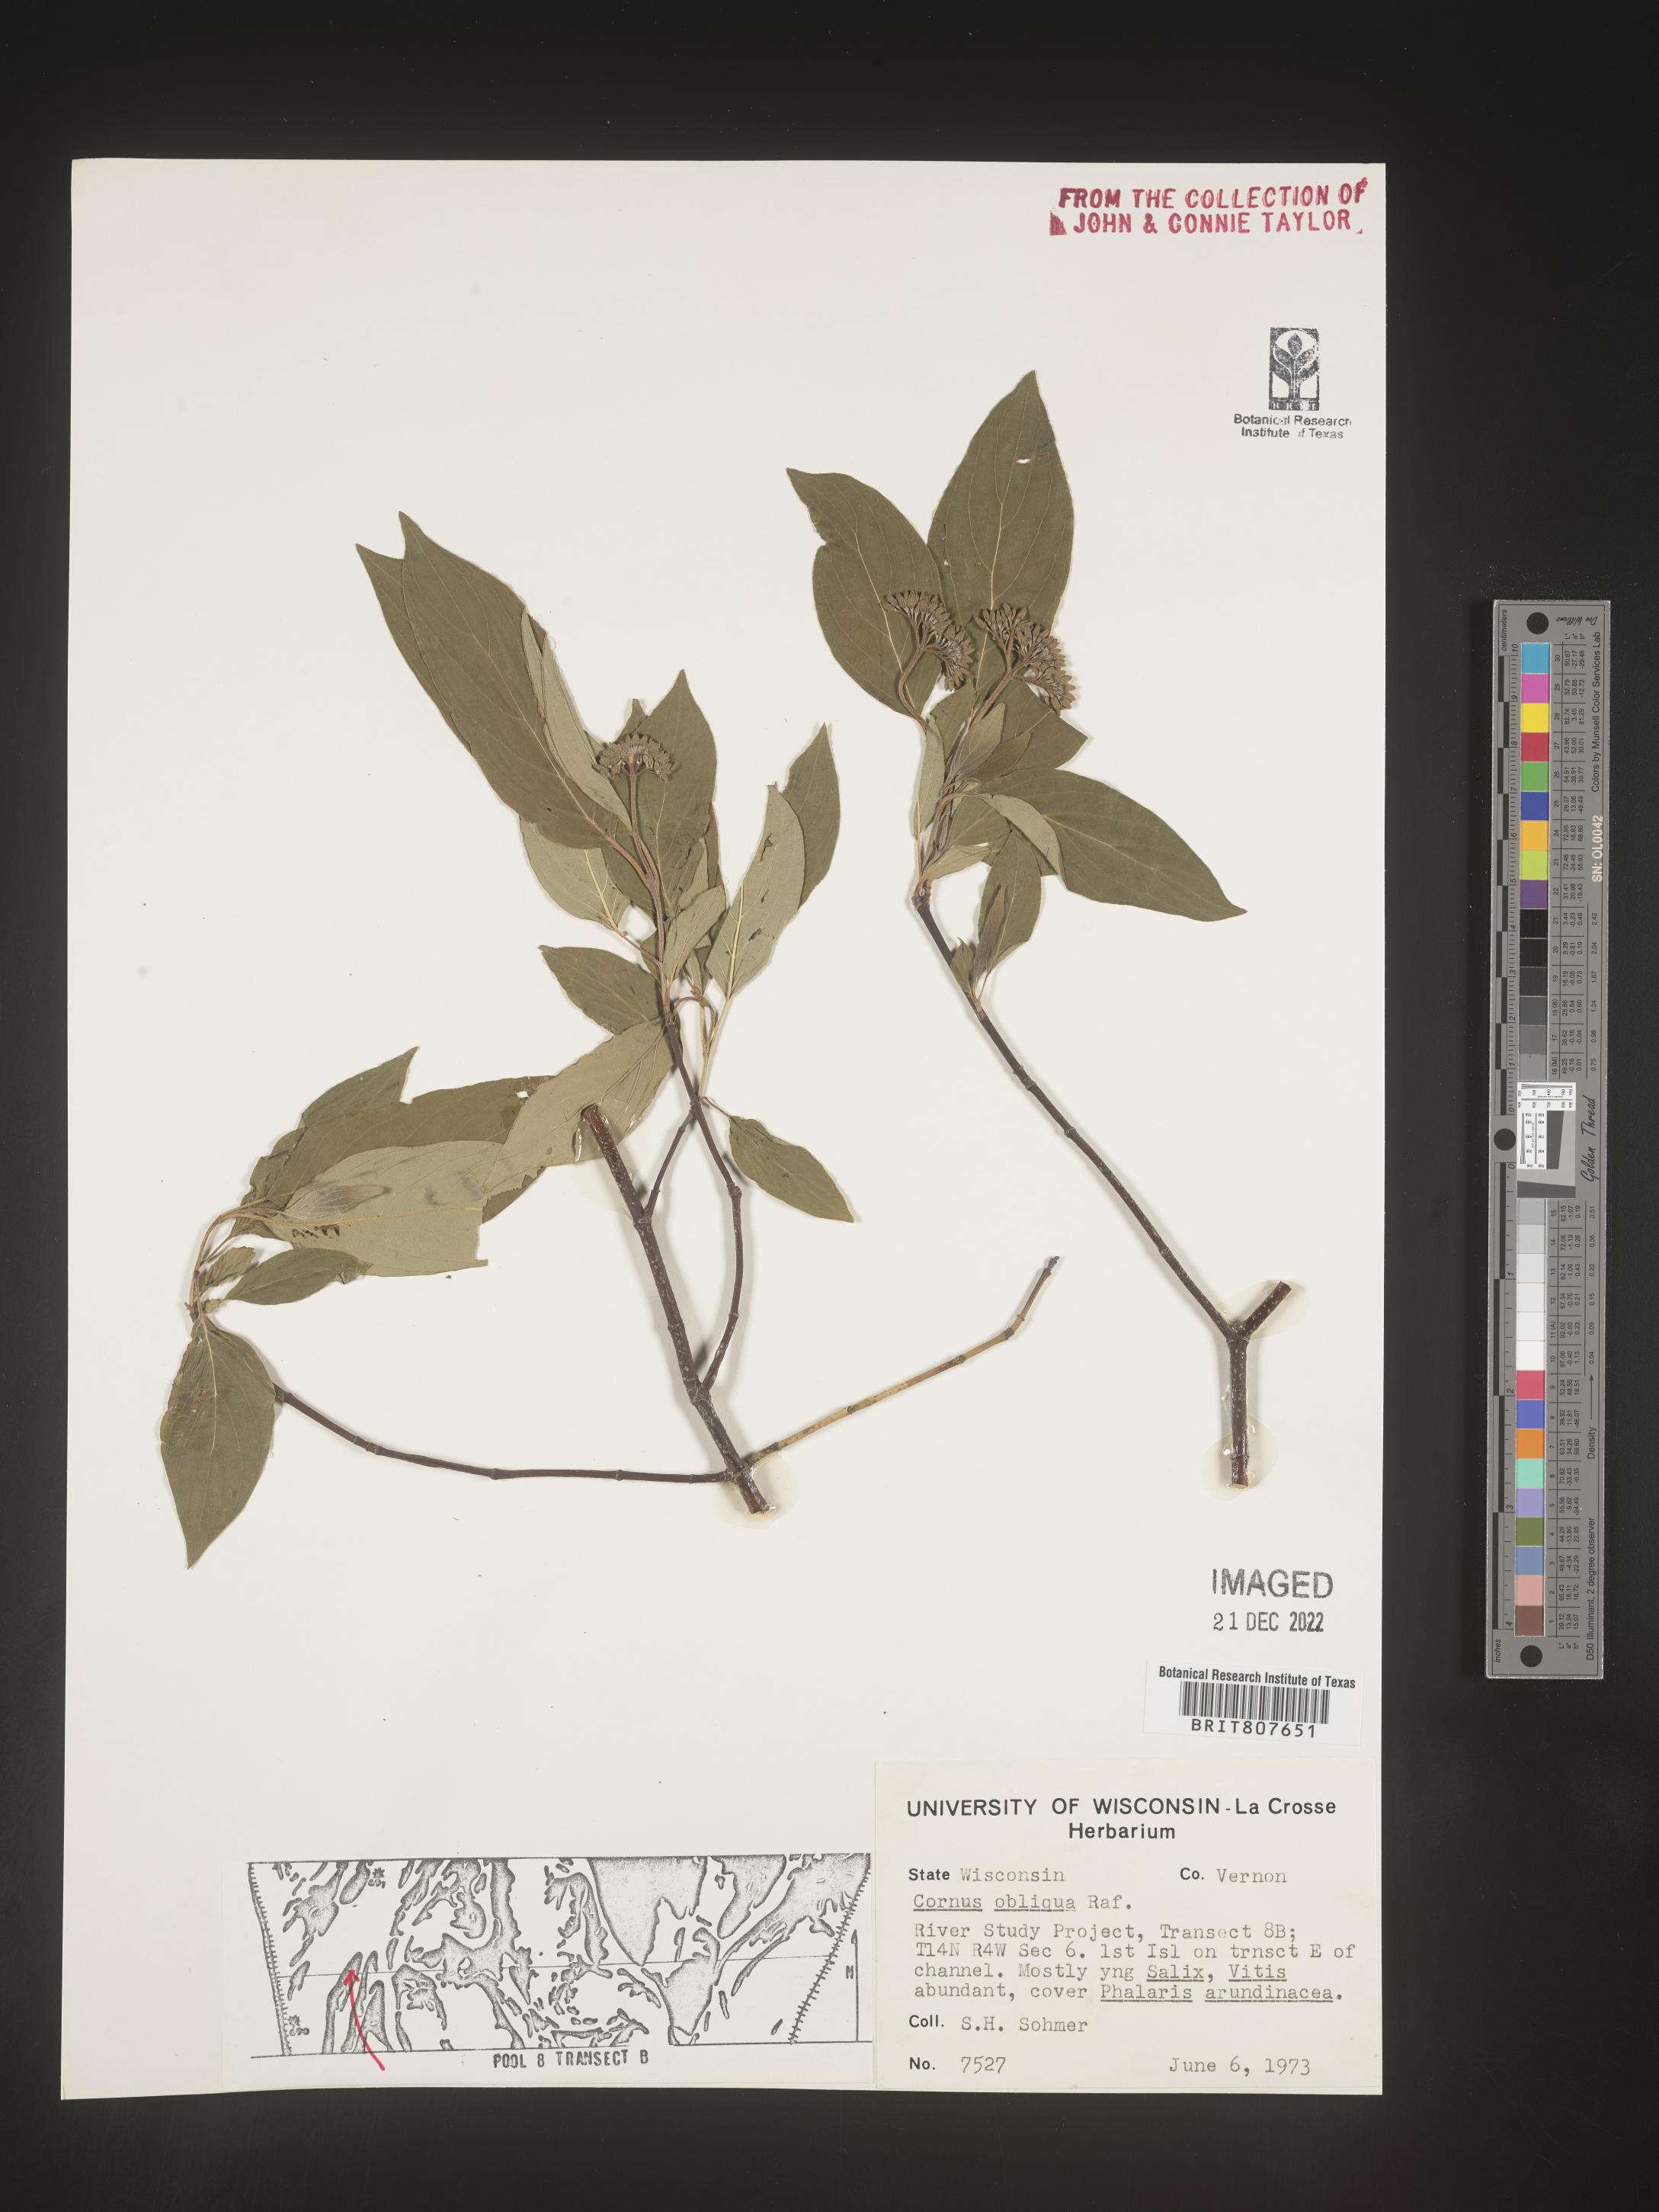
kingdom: Plantae
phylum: Tracheophyta
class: Magnoliopsida
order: Cornales
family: Cornaceae
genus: Cornus
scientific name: Cornus obliqua
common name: Pale dogwood
